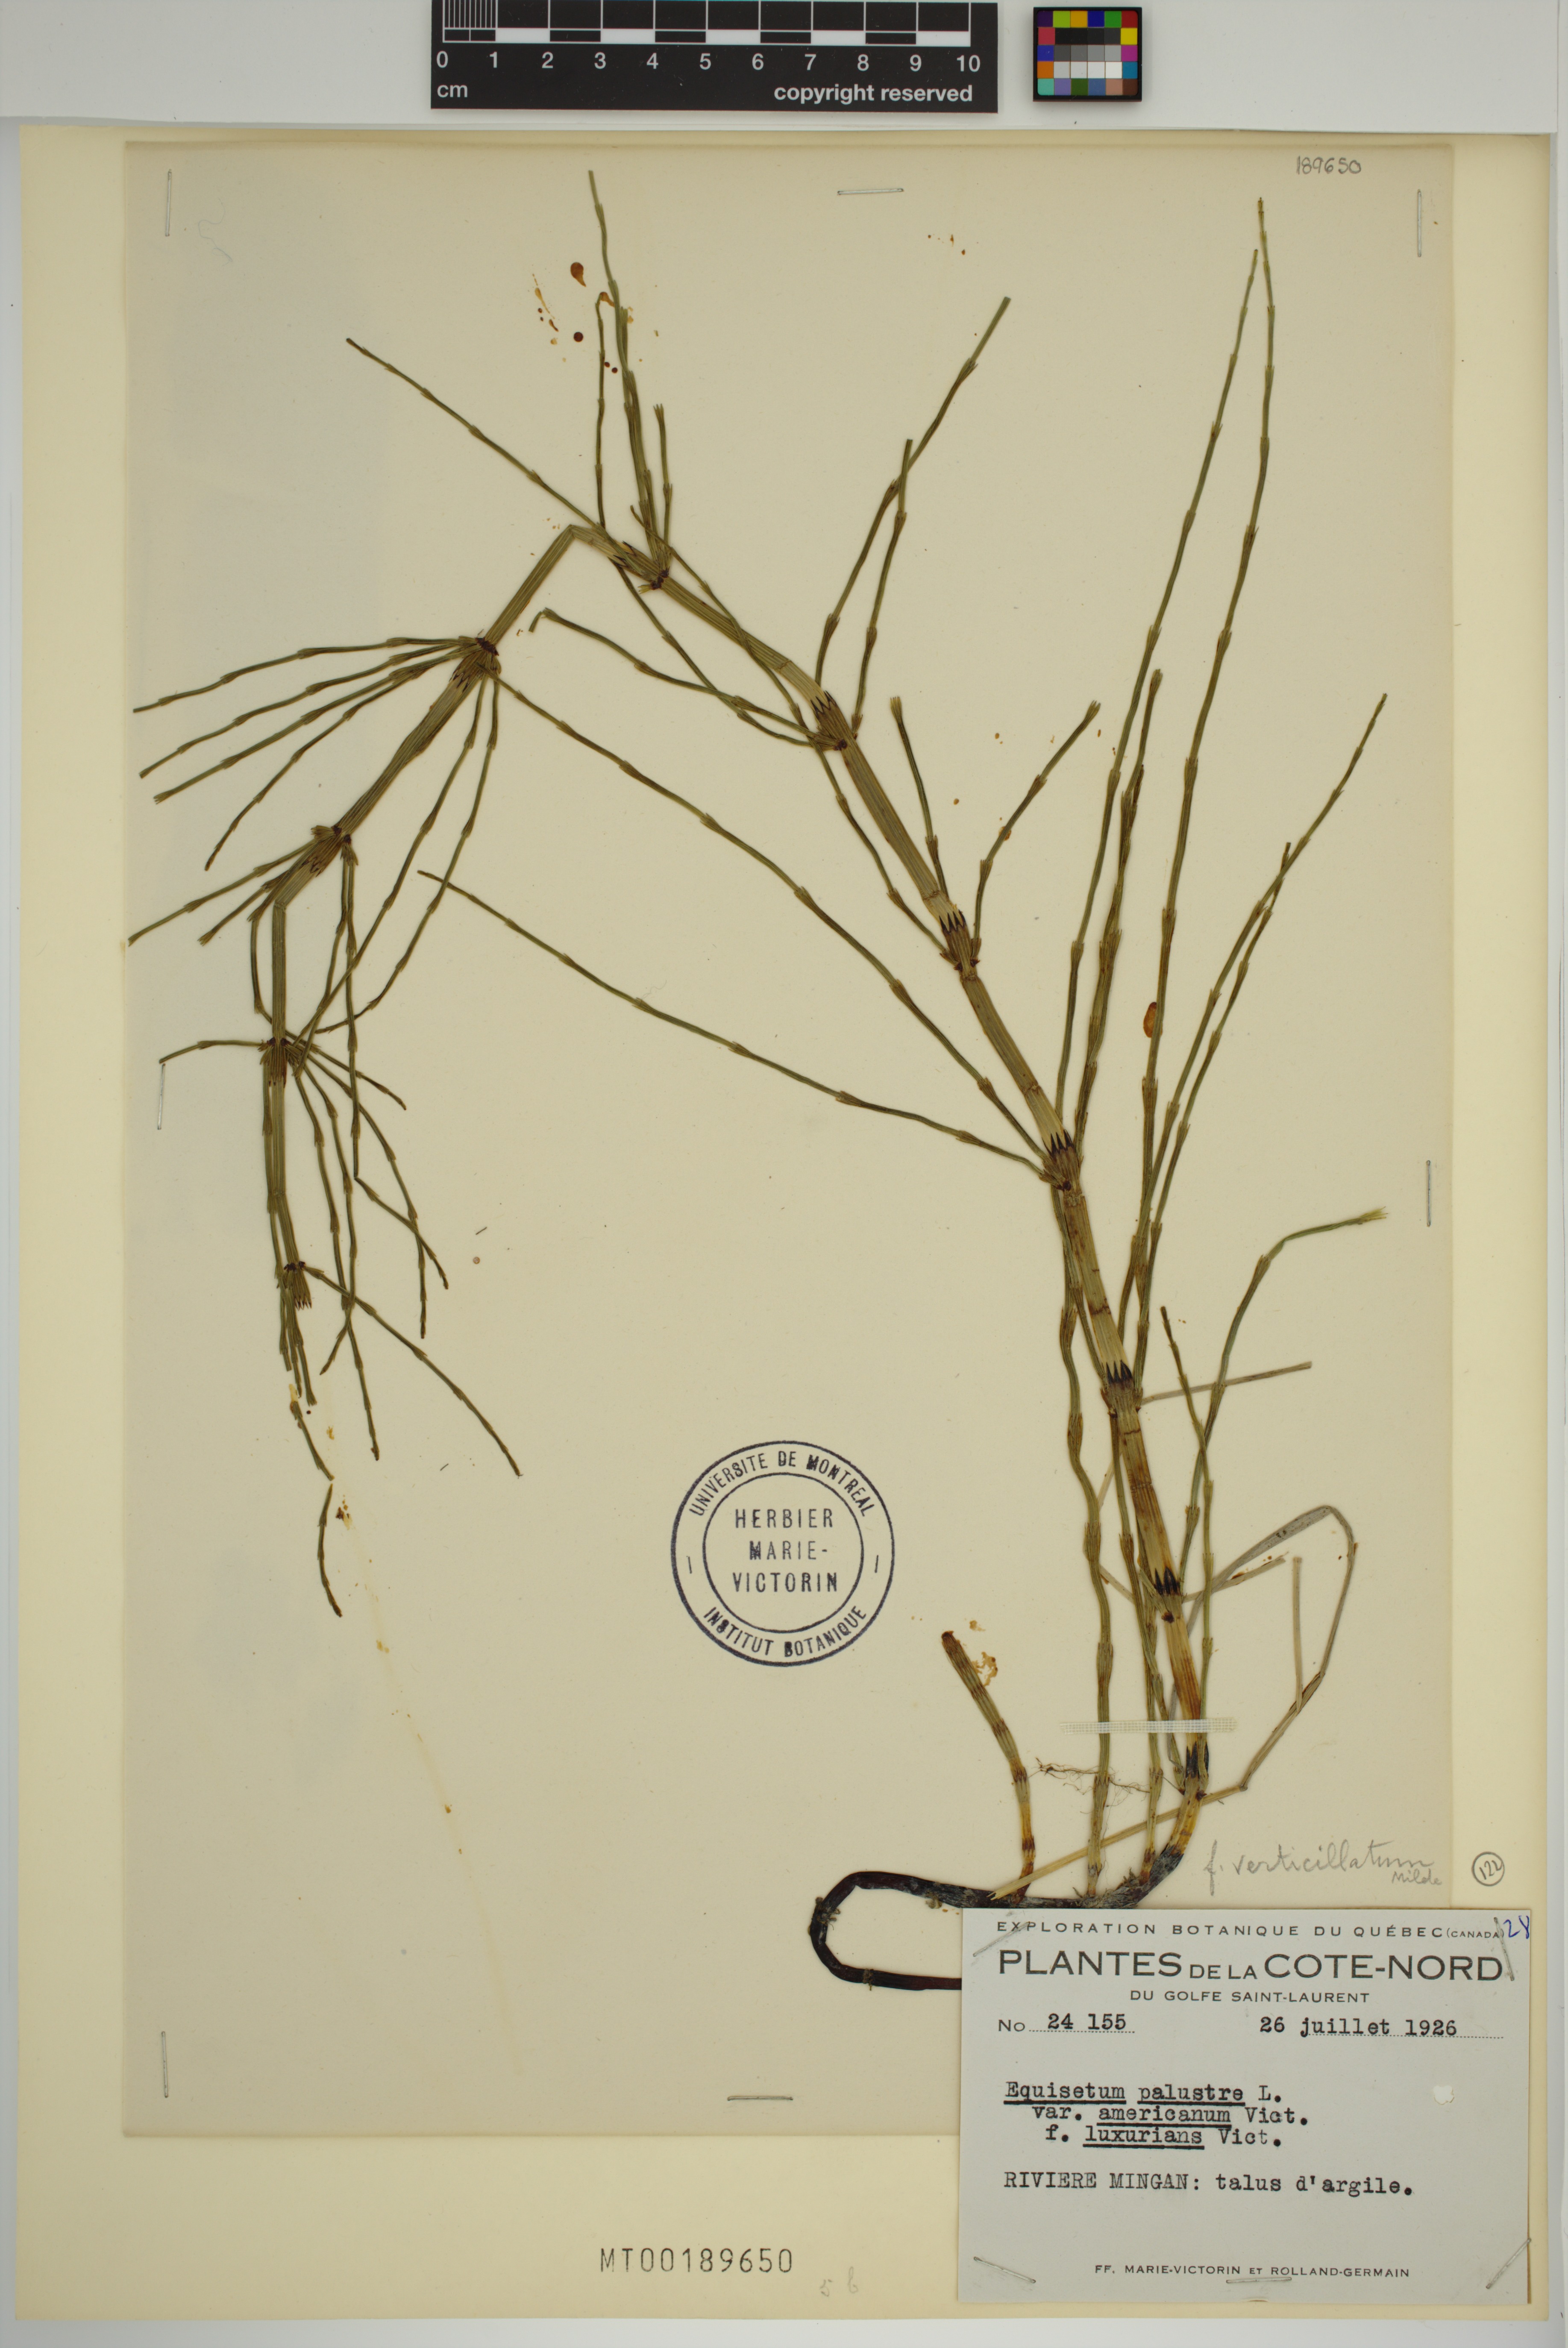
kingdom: Plantae
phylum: Tracheophyta
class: Polypodiopsida
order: Equisetales
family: Equisetaceae
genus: Equisetum
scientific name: Equisetum palustre
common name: Marsh horsetail
